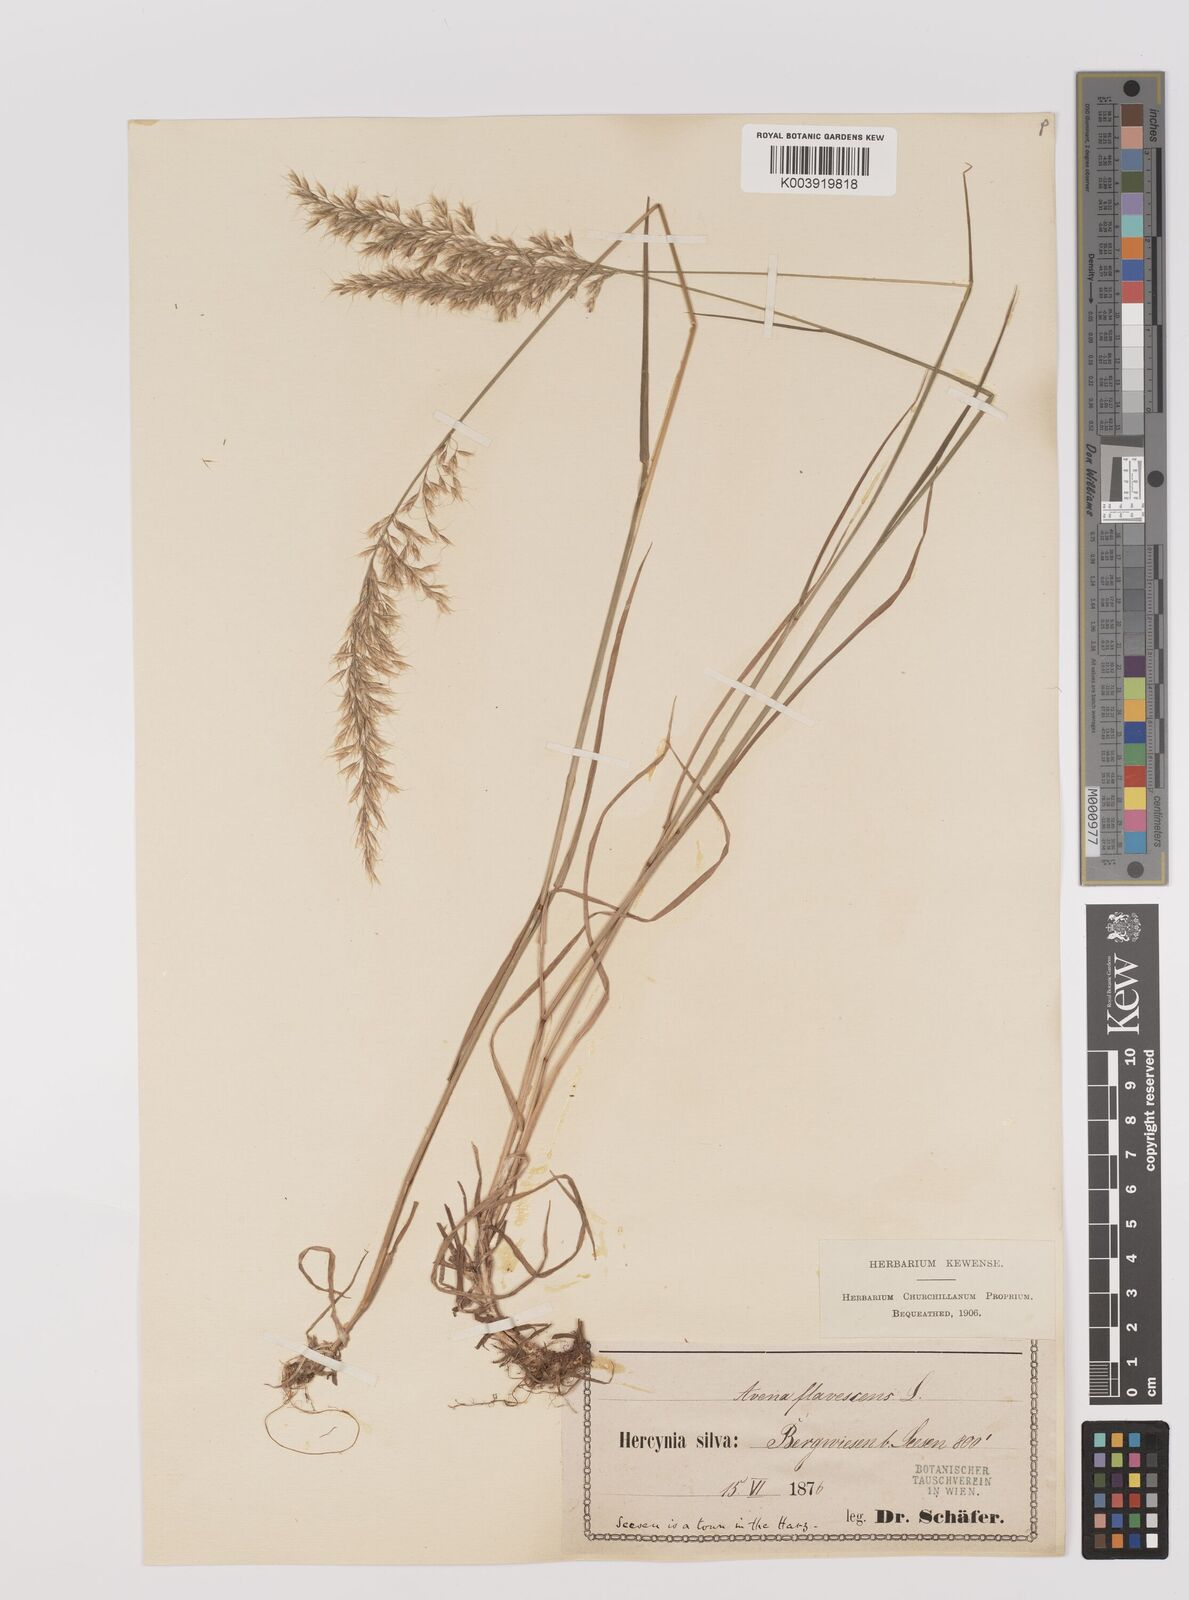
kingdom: Plantae
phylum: Tracheophyta
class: Liliopsida
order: Poales
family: Poaceae
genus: Trisetum
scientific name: Trisetum flavescens
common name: Yellow oat-grass
